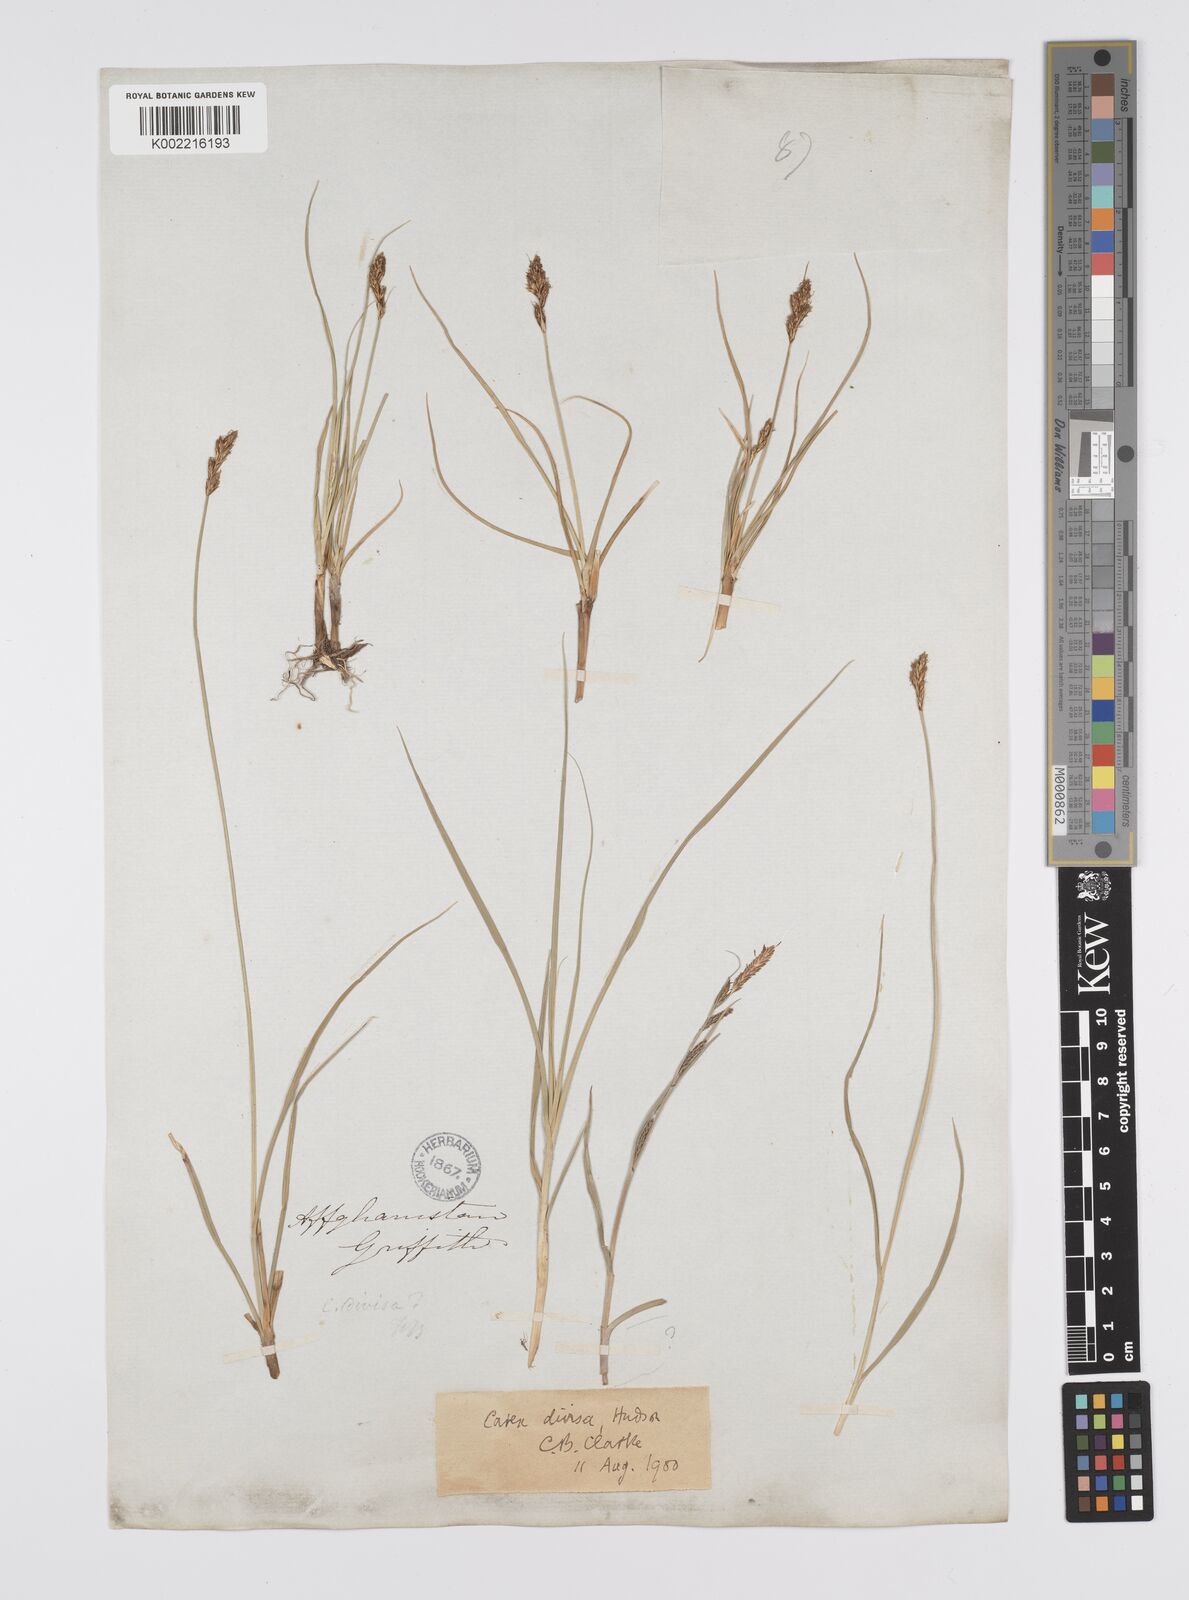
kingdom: Plantae
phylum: Tracheophyta
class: Liliopsida
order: Poales
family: Cyperaceae
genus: Carex
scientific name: Carex divisa
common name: Divided sedge
